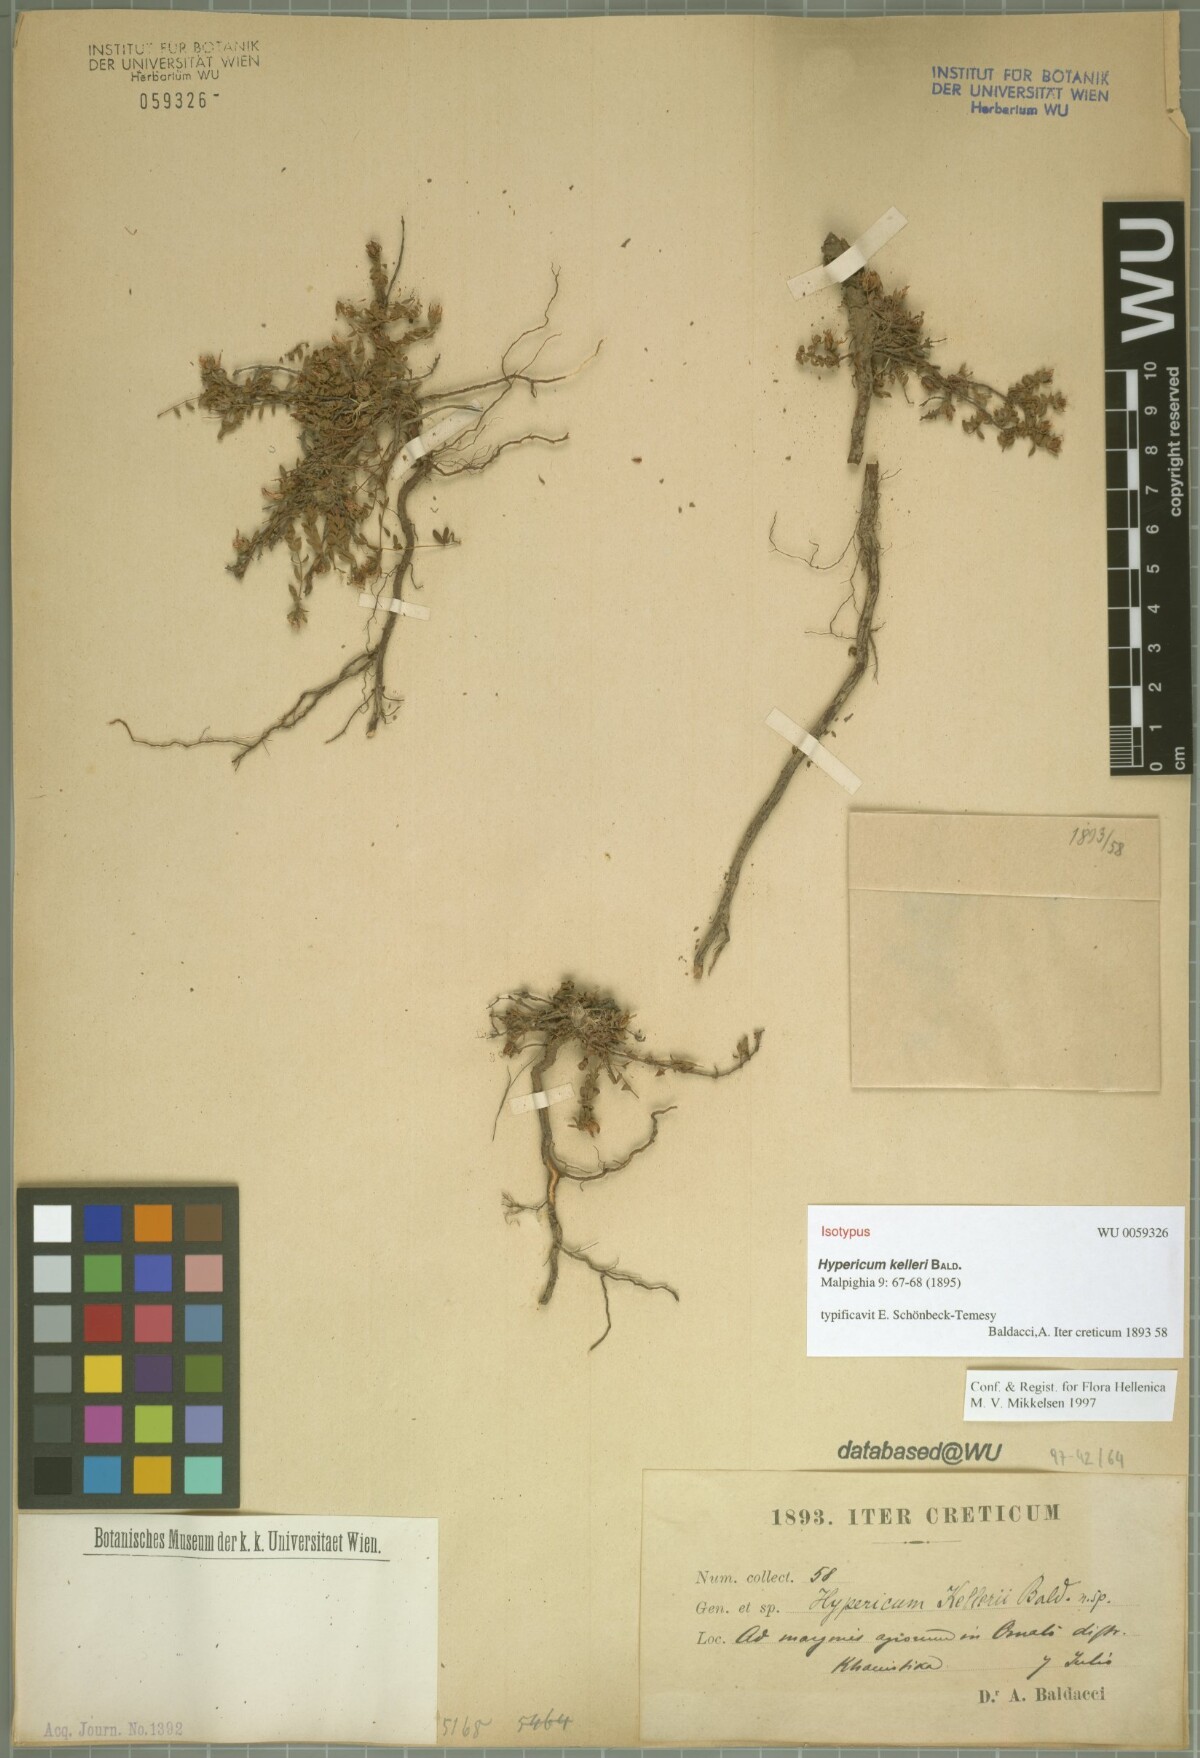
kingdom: Plantae
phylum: Tracheophyta
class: Magnoliopsida
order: Malpighiales
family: Hypericaceae
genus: Hypericum
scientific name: Hypericum kelleri
